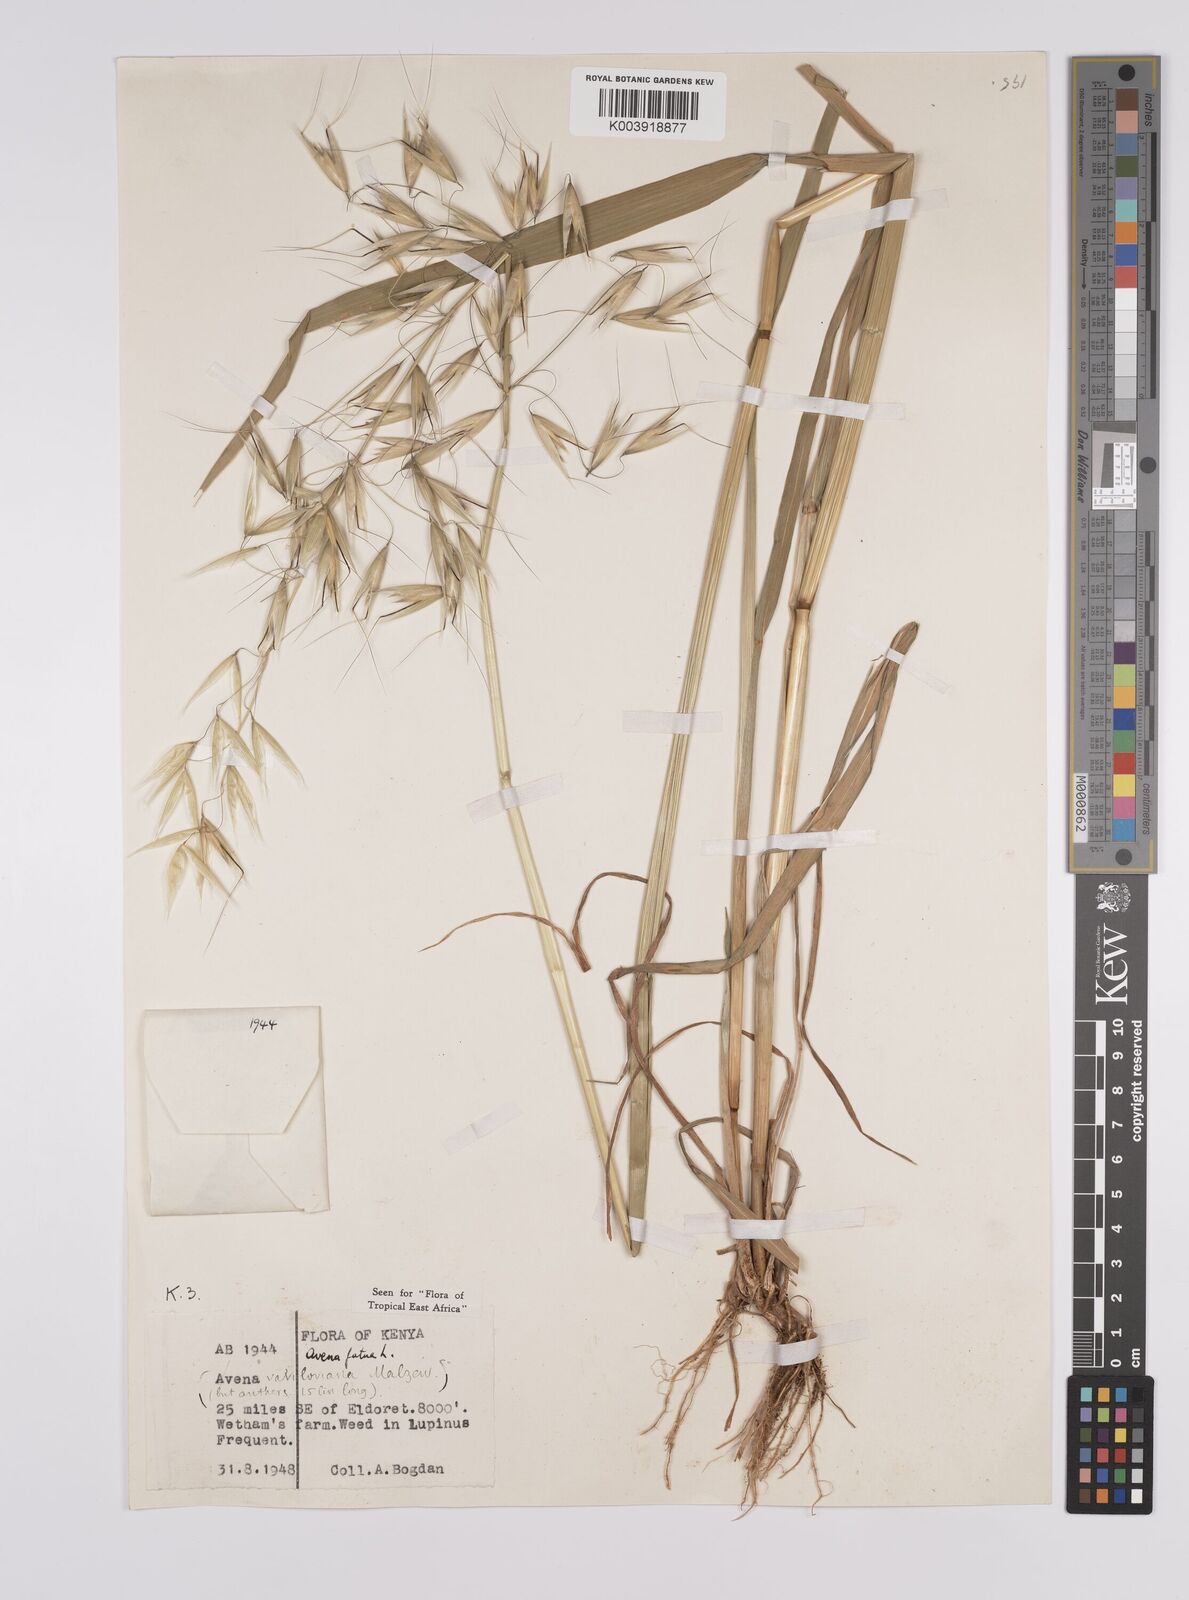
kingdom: Plantae
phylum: Tracheophyta
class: Liliopsida
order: Poales
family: Poaceae
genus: Avena
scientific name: Avena fatua
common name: Wild oat
